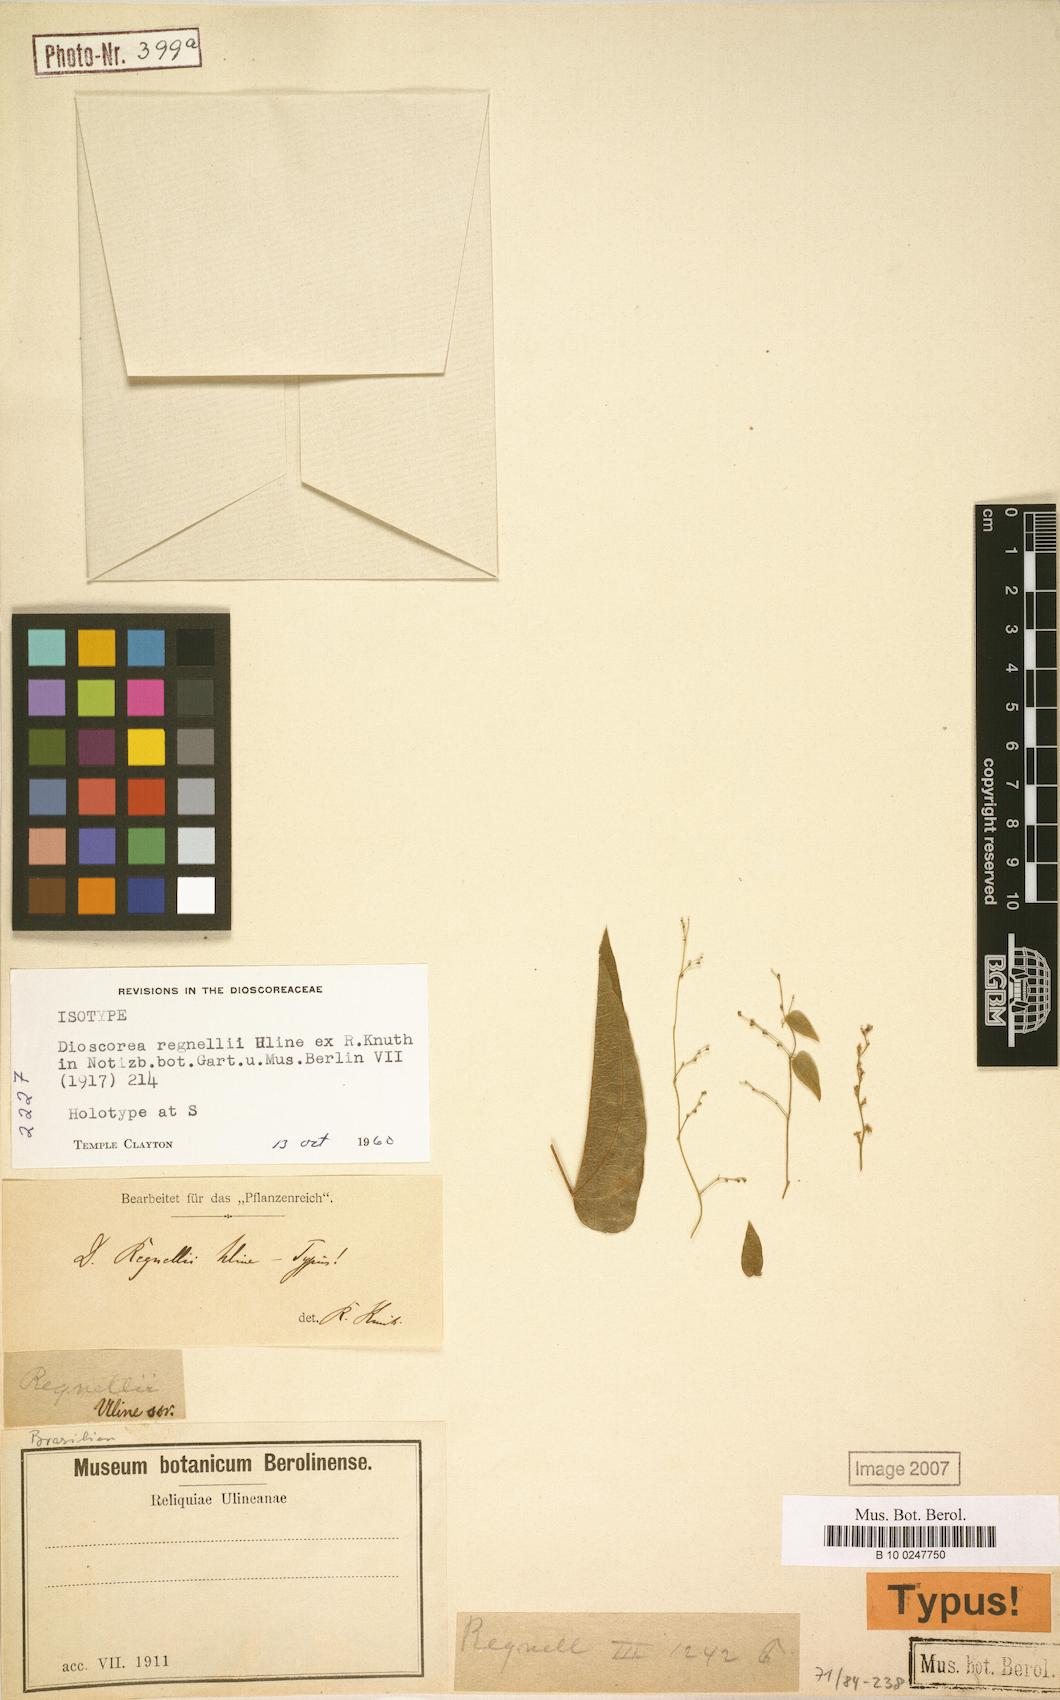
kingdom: Plantae
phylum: Tracheophyta
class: Liliopsida
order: Dioscoreales
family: Dioscoreaceae
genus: Dioscorea
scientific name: Dioscorea regnellii
